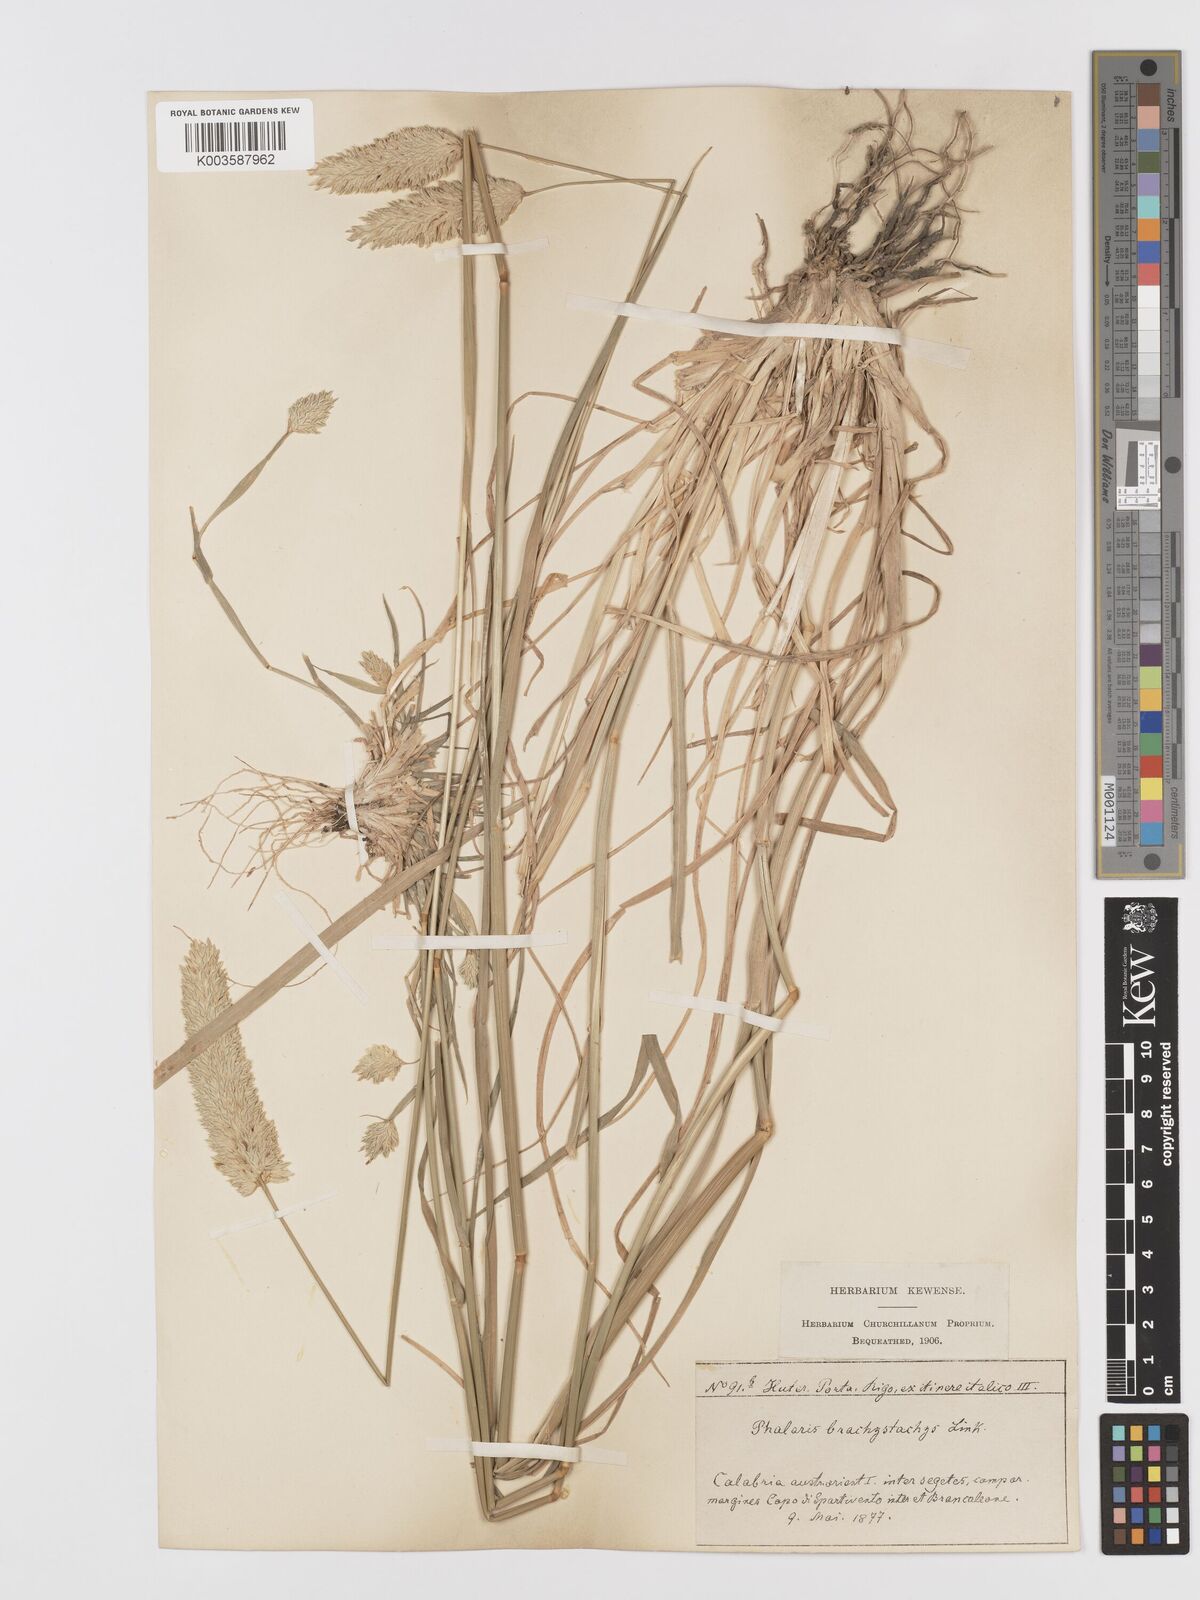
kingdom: Plantae
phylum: Tracheophyta
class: Liliopsida
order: Poales
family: Poaceae
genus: Phalaris
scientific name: Phalaris brachystachys
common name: Confused canary-grass
